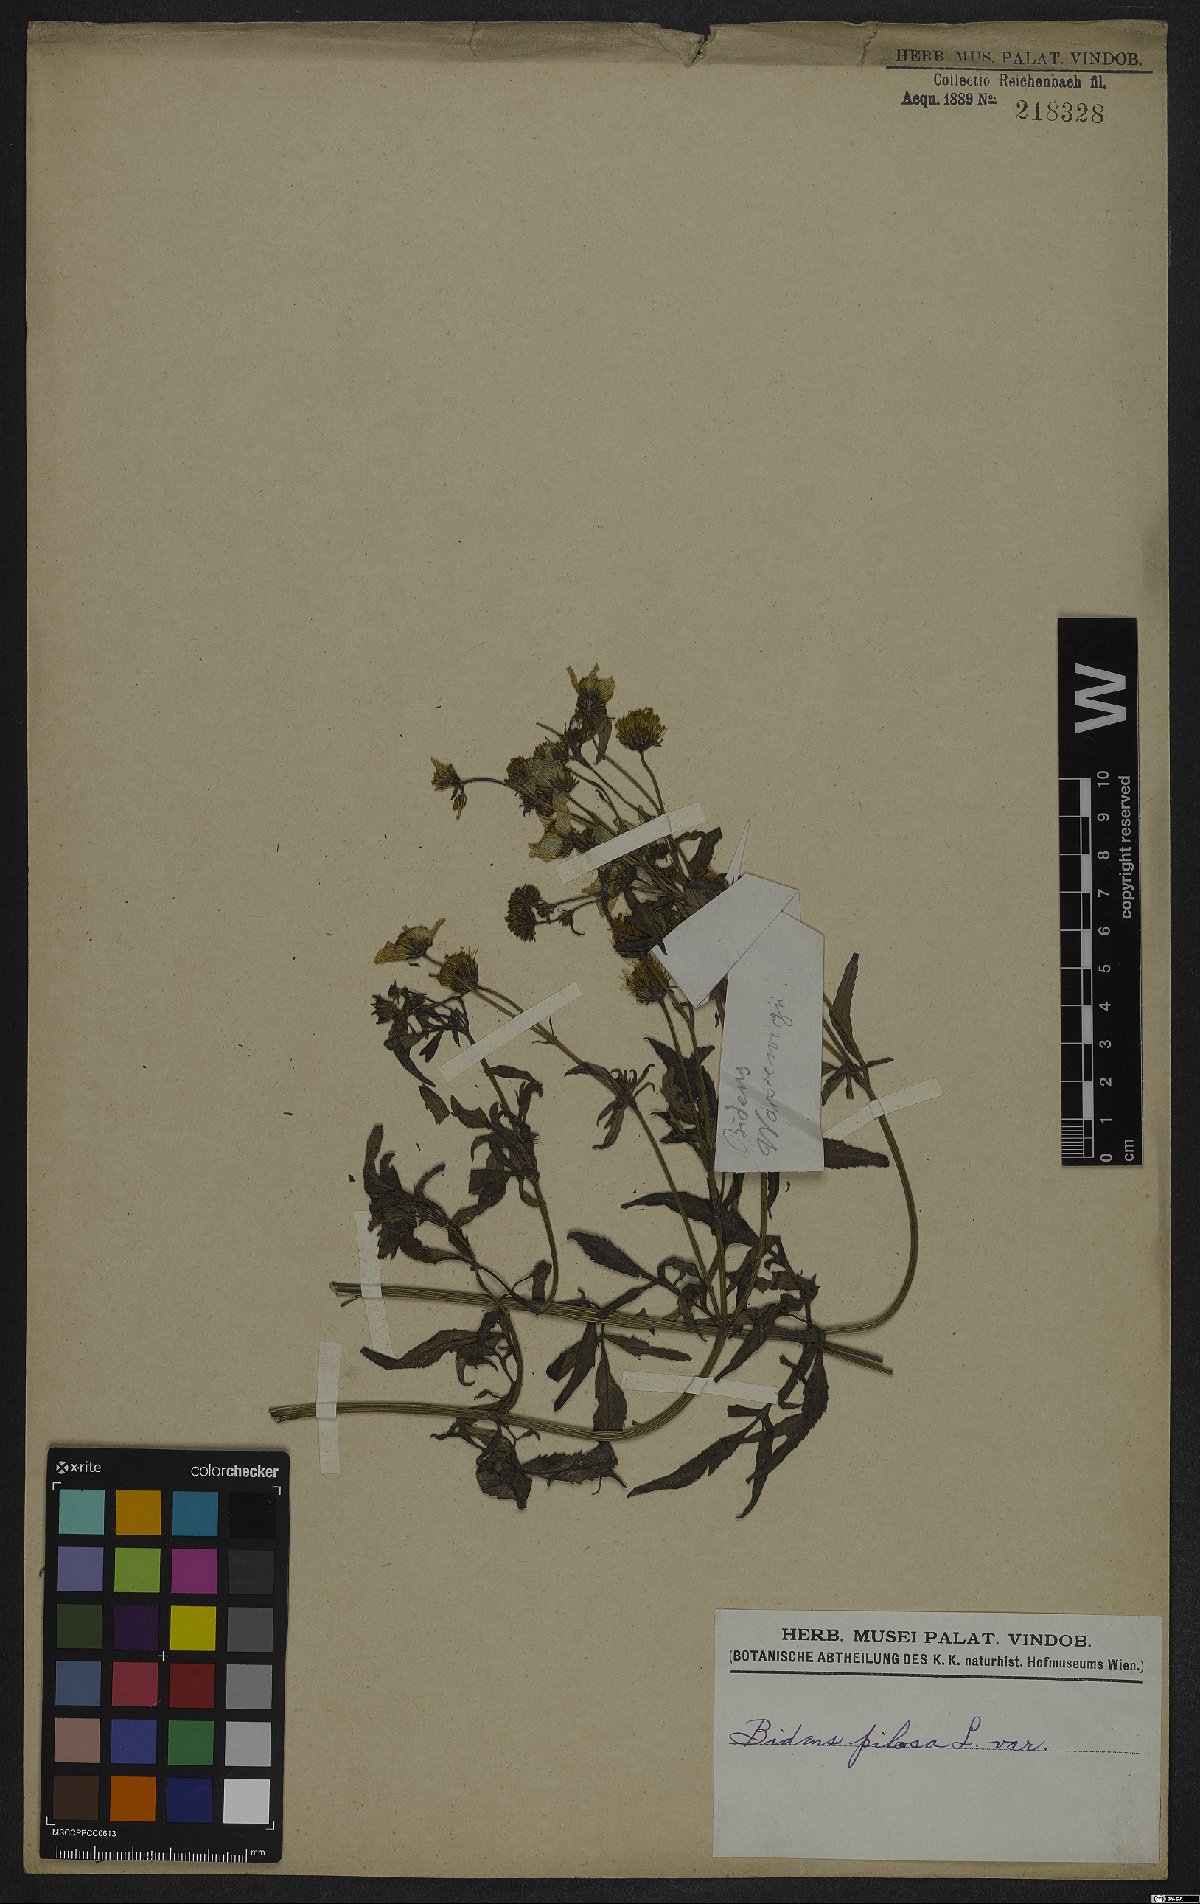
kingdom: Plantae
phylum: Tracheophyta
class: Magnoliopsida
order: Asterales
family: Asteraceae
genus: Bidens
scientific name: Bidens pilosa
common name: Black-jack
